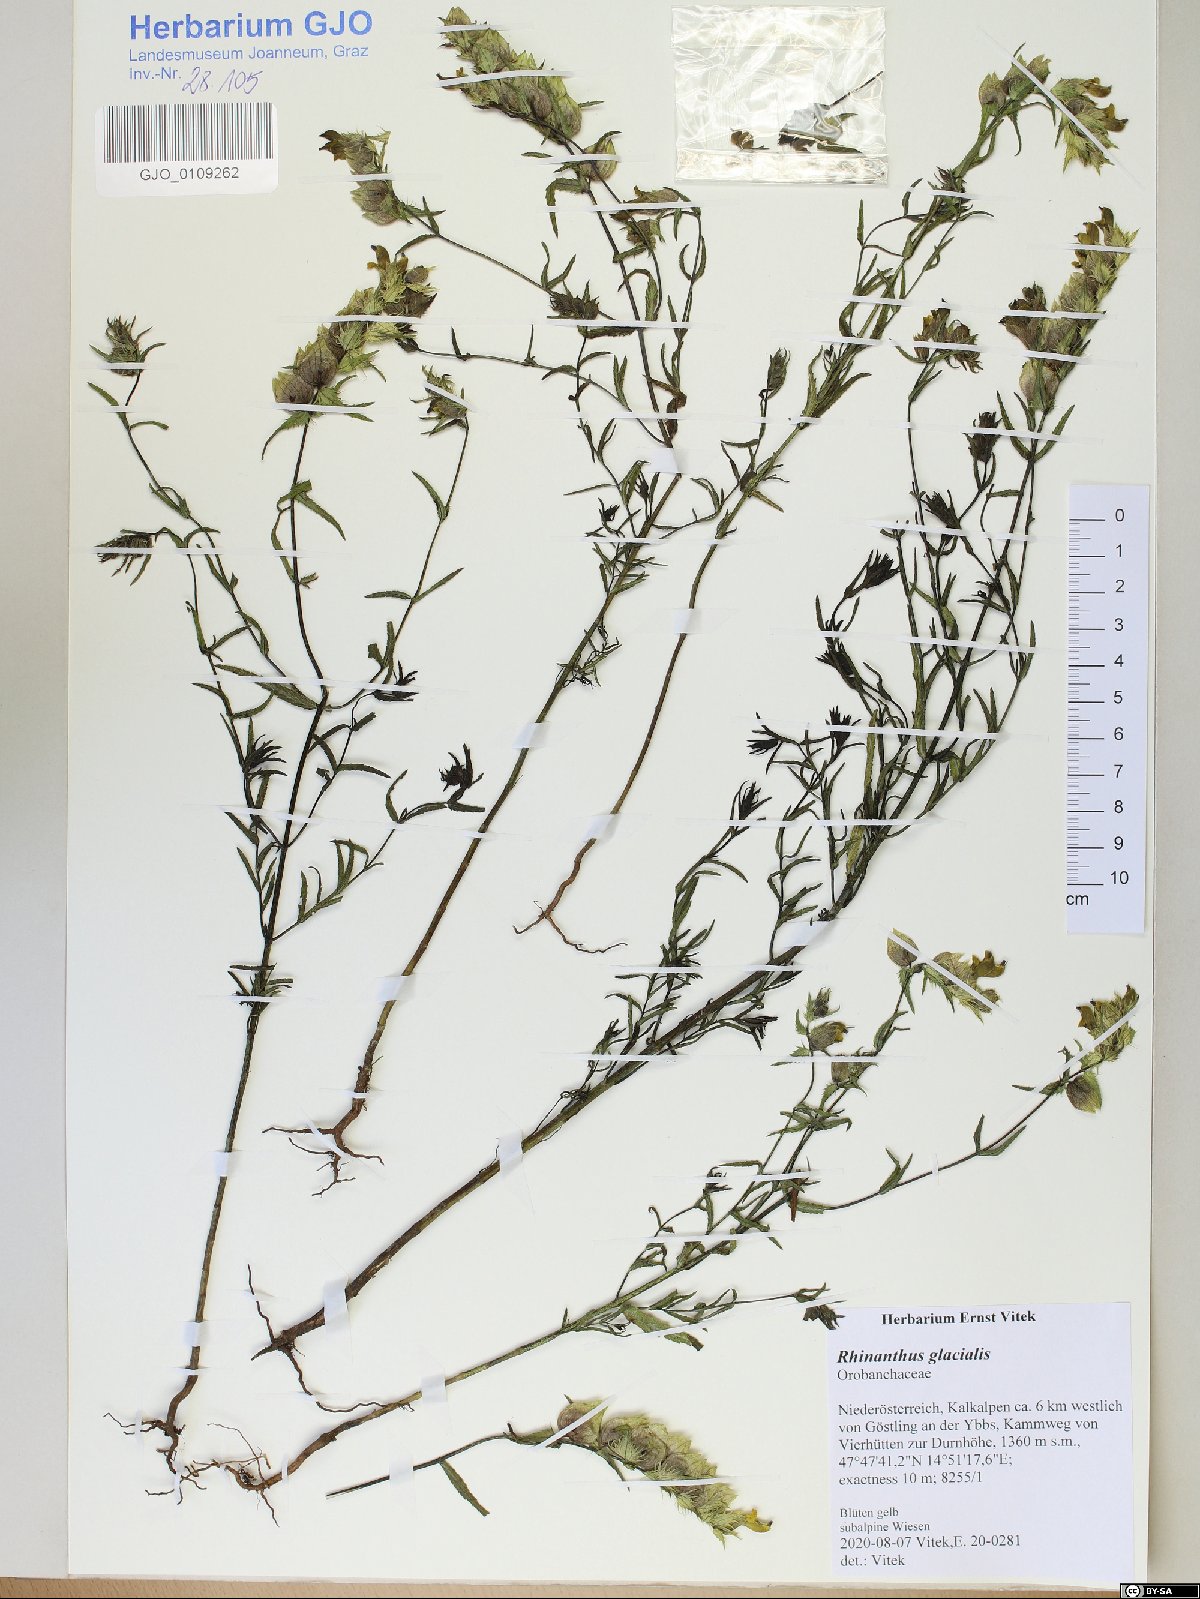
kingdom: Plantae
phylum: Tracheophyta
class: Magnoliopsida
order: Lamiales
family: Orobanchaceae
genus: Rhinanthus
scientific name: Rhinanthus glacialis
